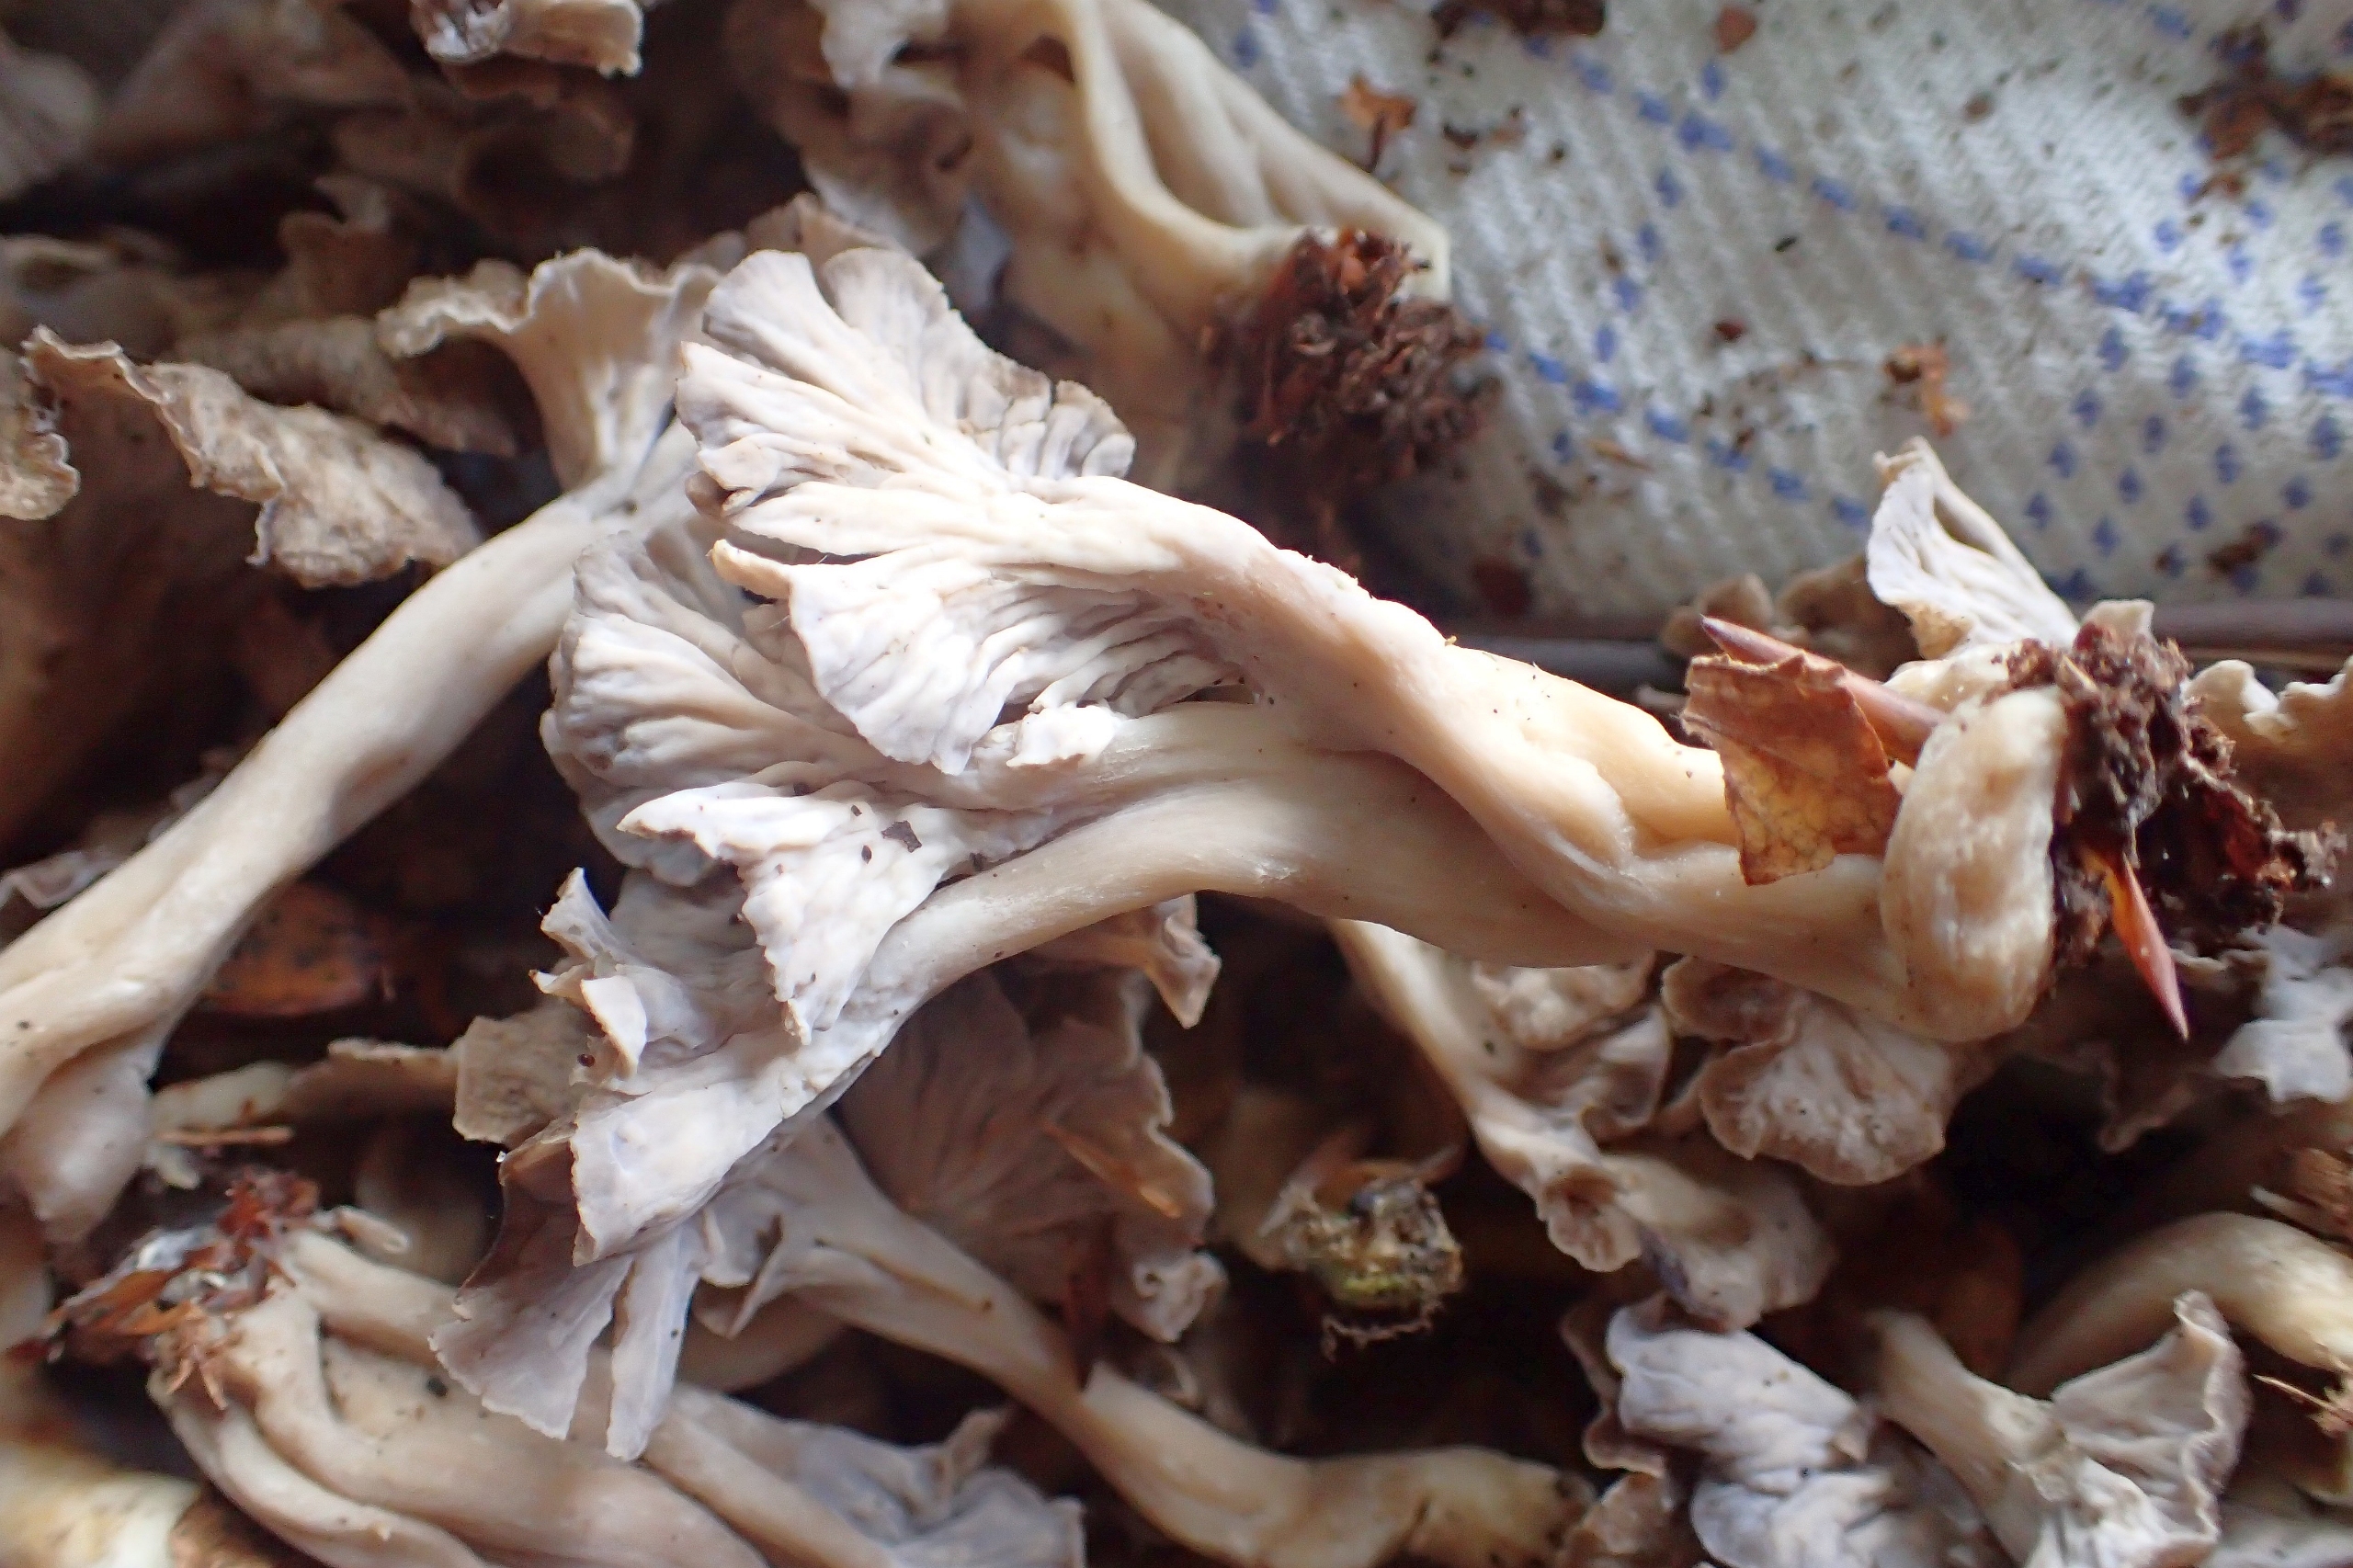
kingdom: Fungi
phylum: Basidiomycota
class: Agaricomycetes
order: Cantharellales
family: Hydnaceae
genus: Craterellus
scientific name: Craterellus undulatus
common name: Liden kantarel
